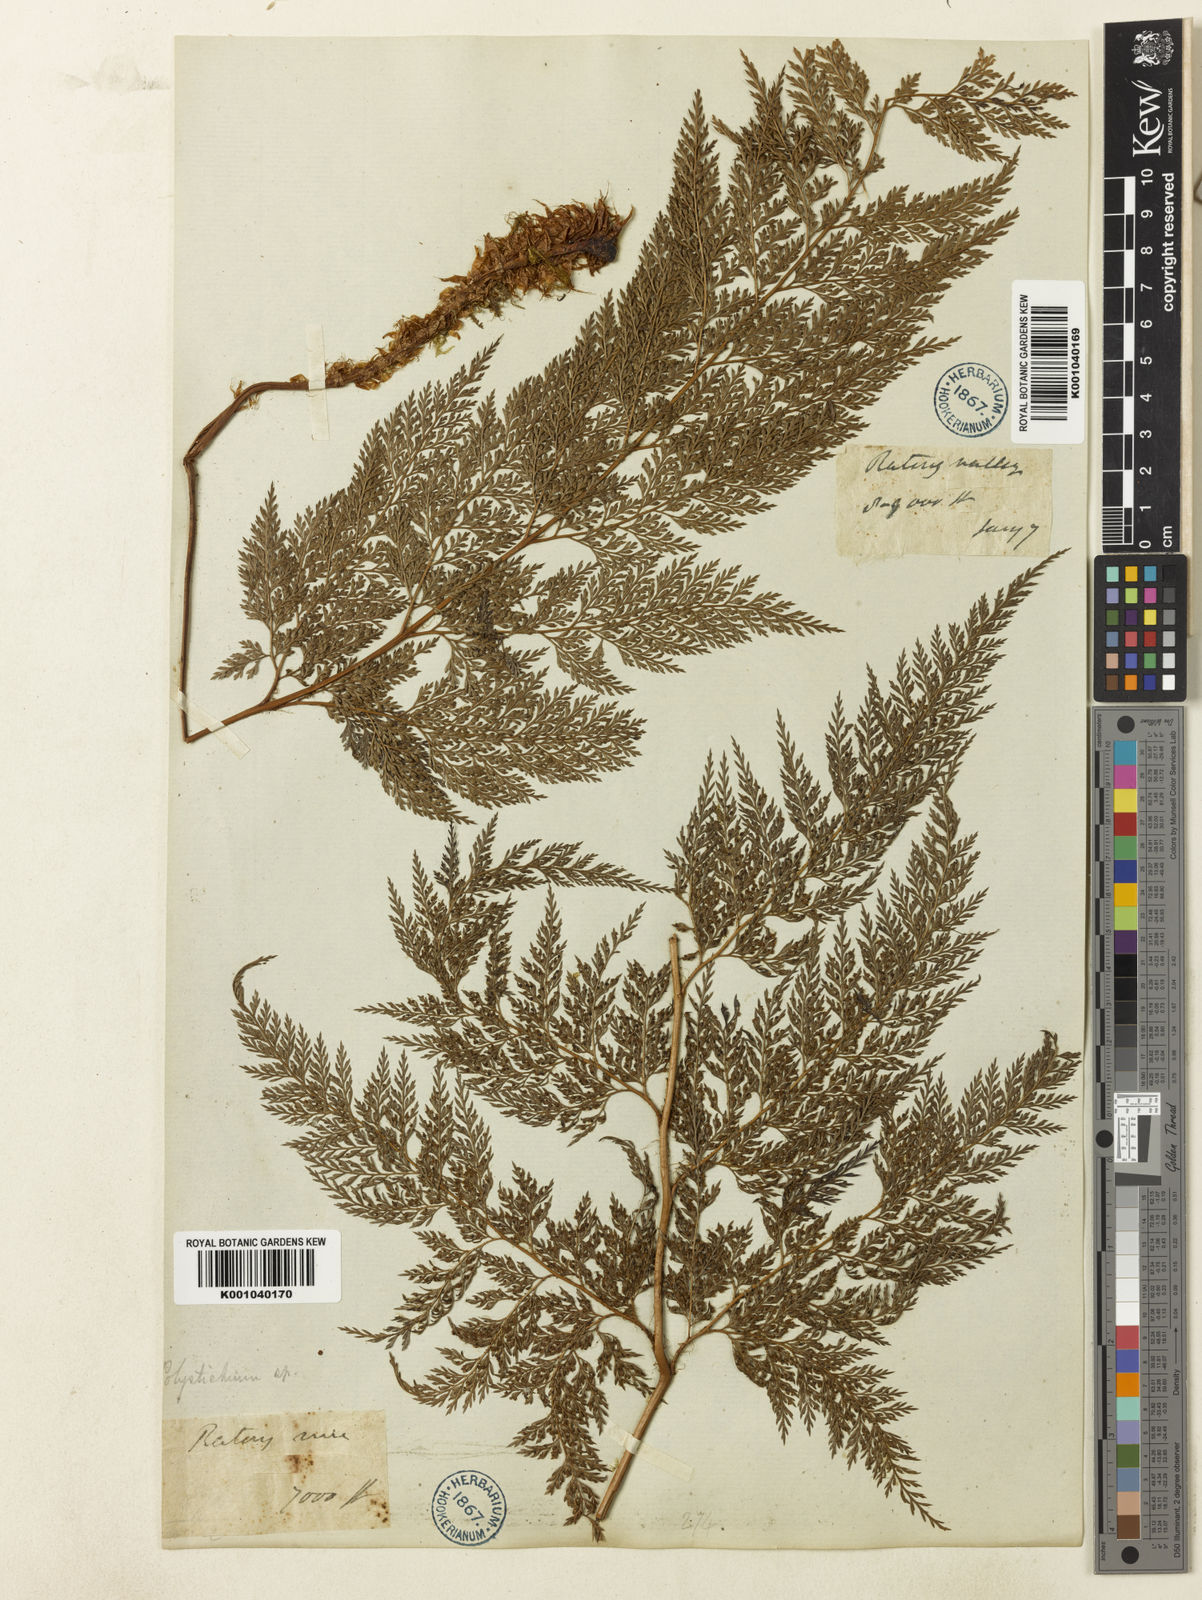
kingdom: Plantae
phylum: Tracheophyta
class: Polypodiopsida
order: Polypodiales
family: Dryopteridaceae
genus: Arachniodes
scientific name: Arachniodes superba
